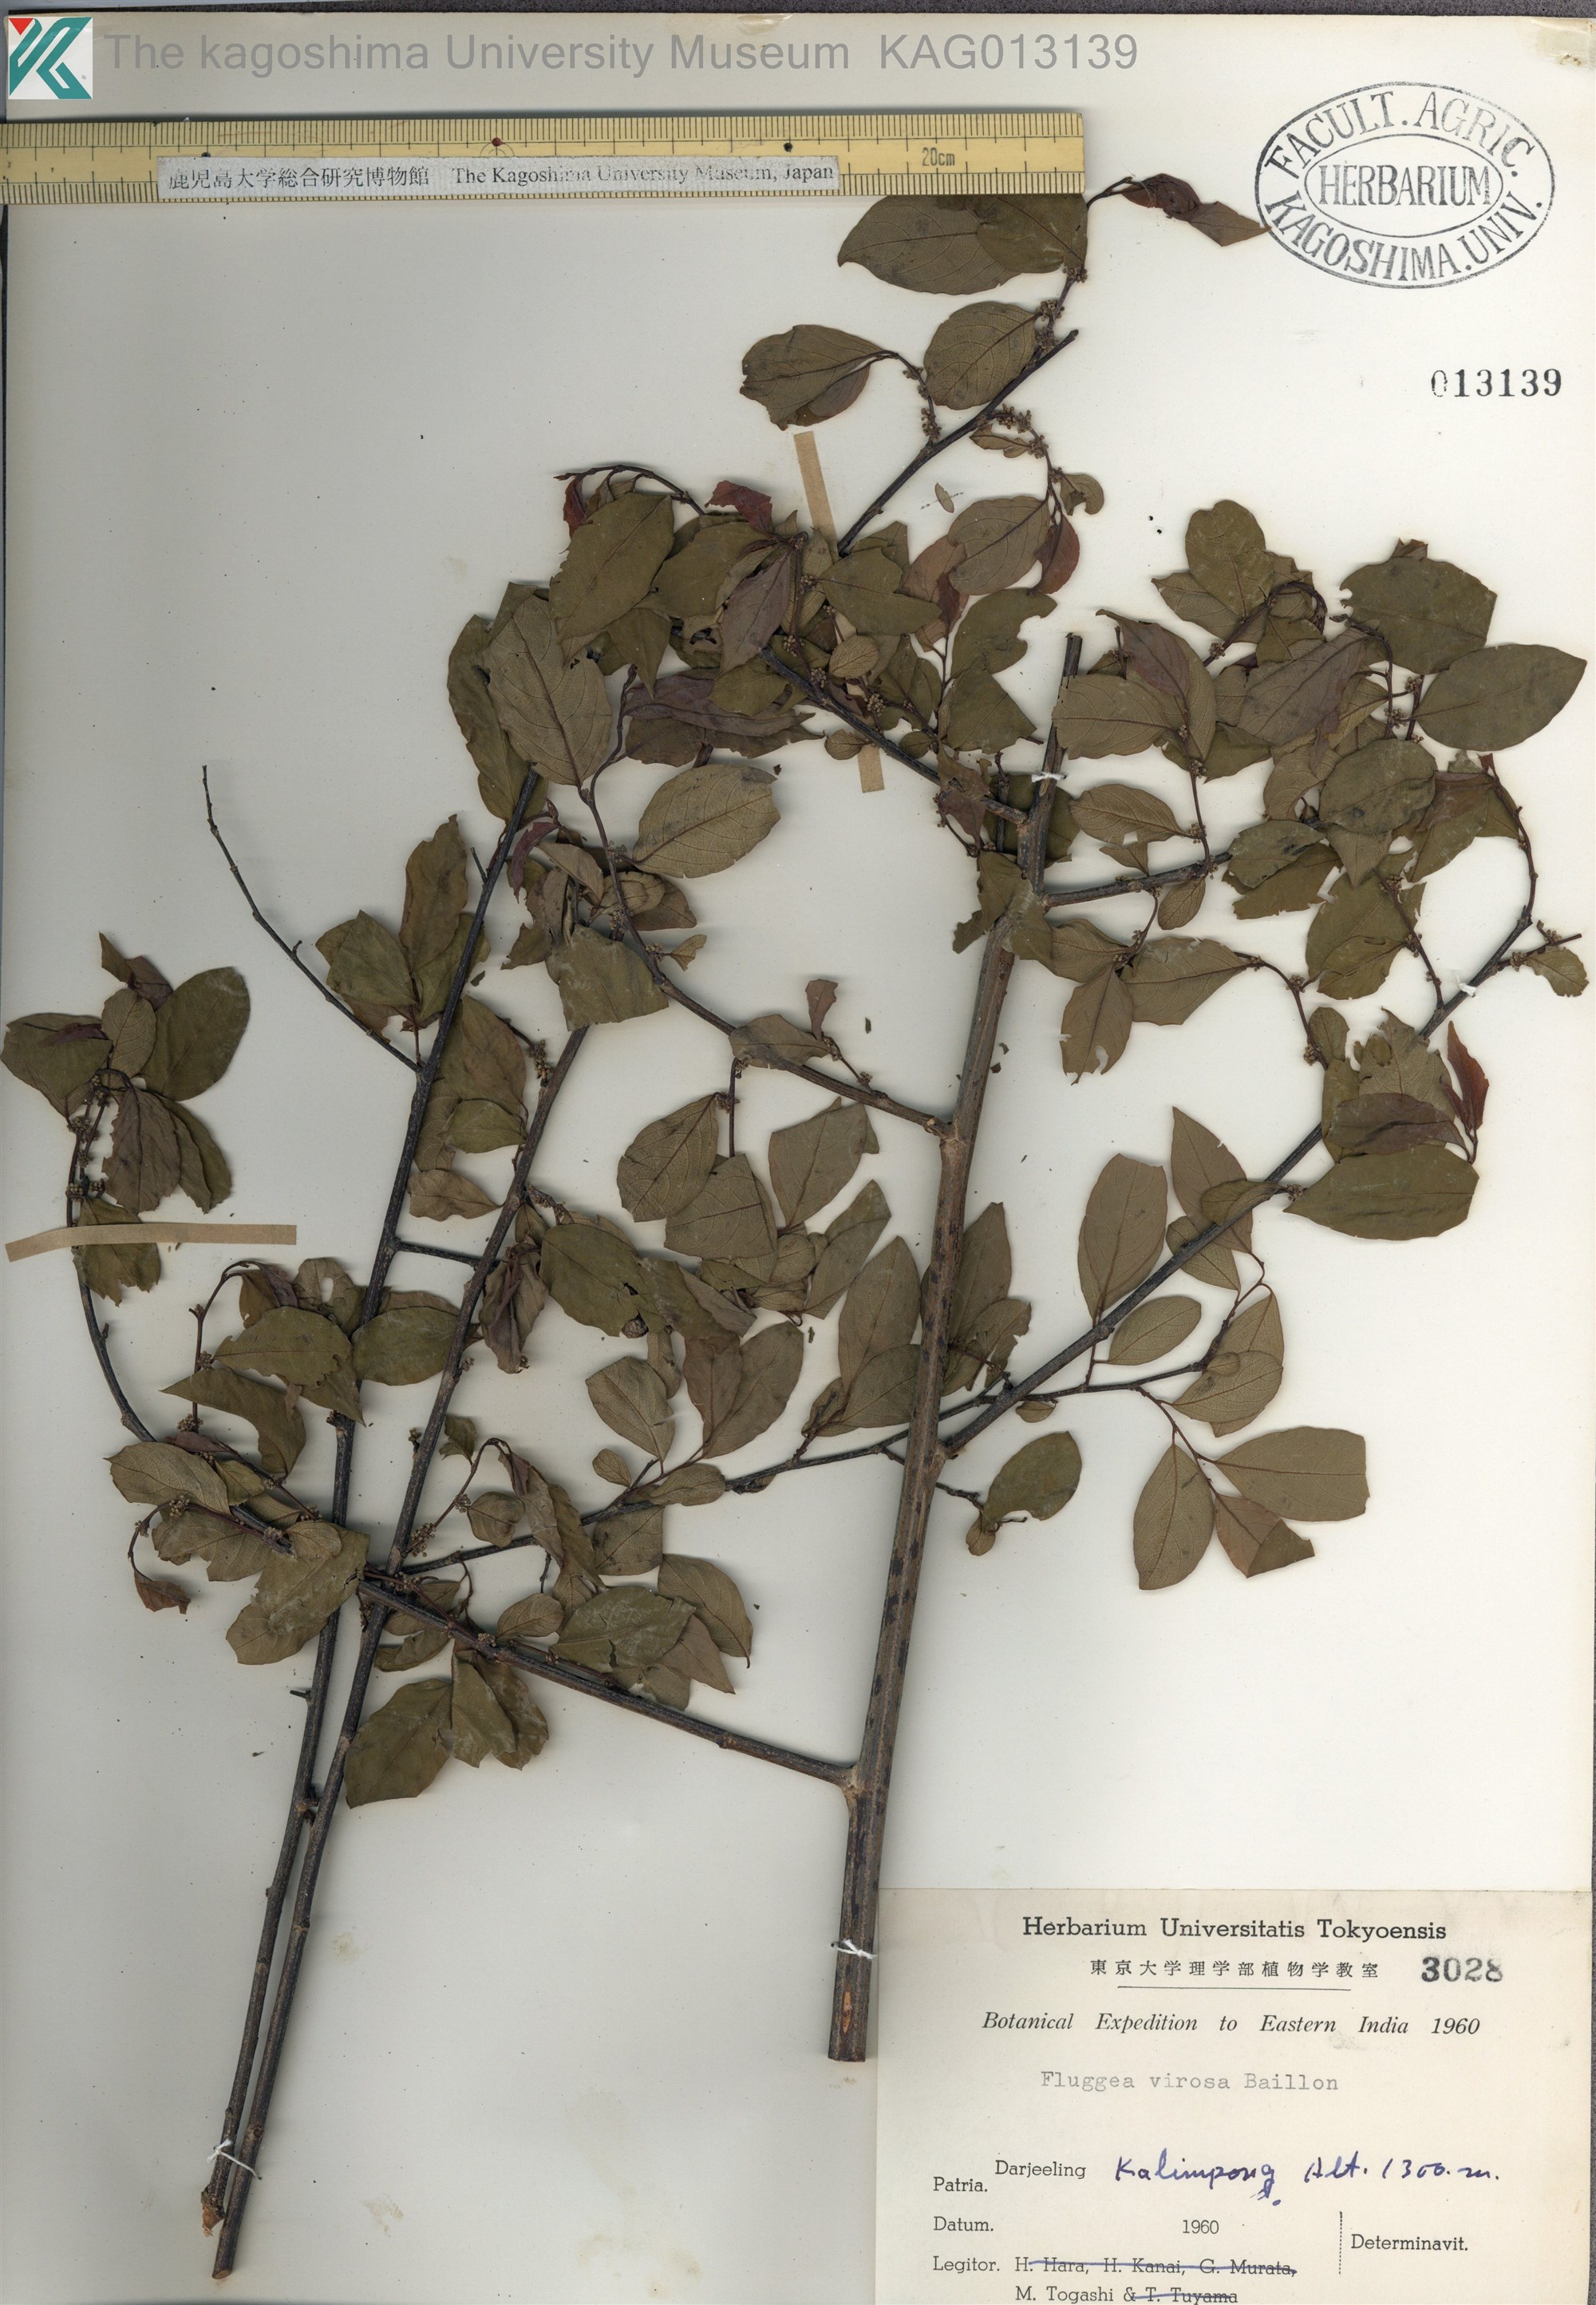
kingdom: Plantae
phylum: Tracheophyta
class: Magnoliopsida
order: Malpighiales
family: Phyllanthaceae
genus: Flueggea
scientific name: Flueggea virosa
